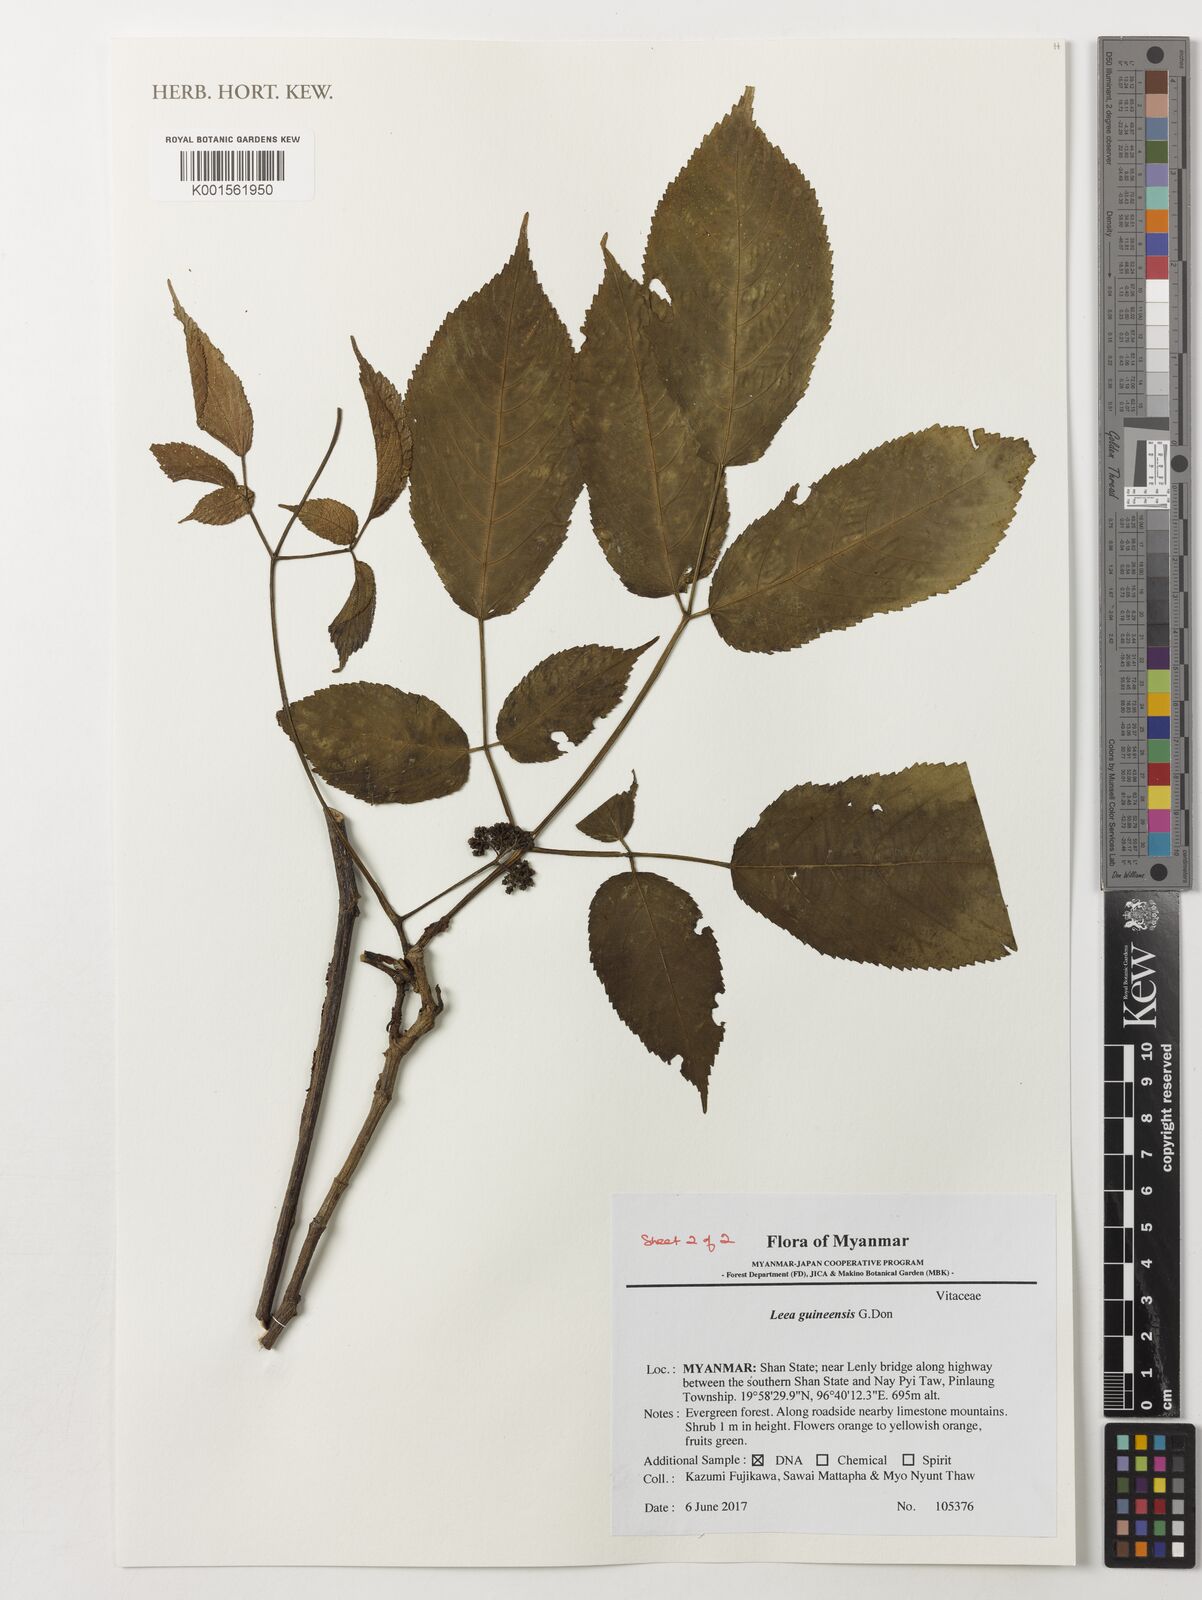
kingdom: Plantae
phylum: Tracheophyta
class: Magnoliopsida
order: Vitales
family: Vitaceae
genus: Leea
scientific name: Leea guineensis
